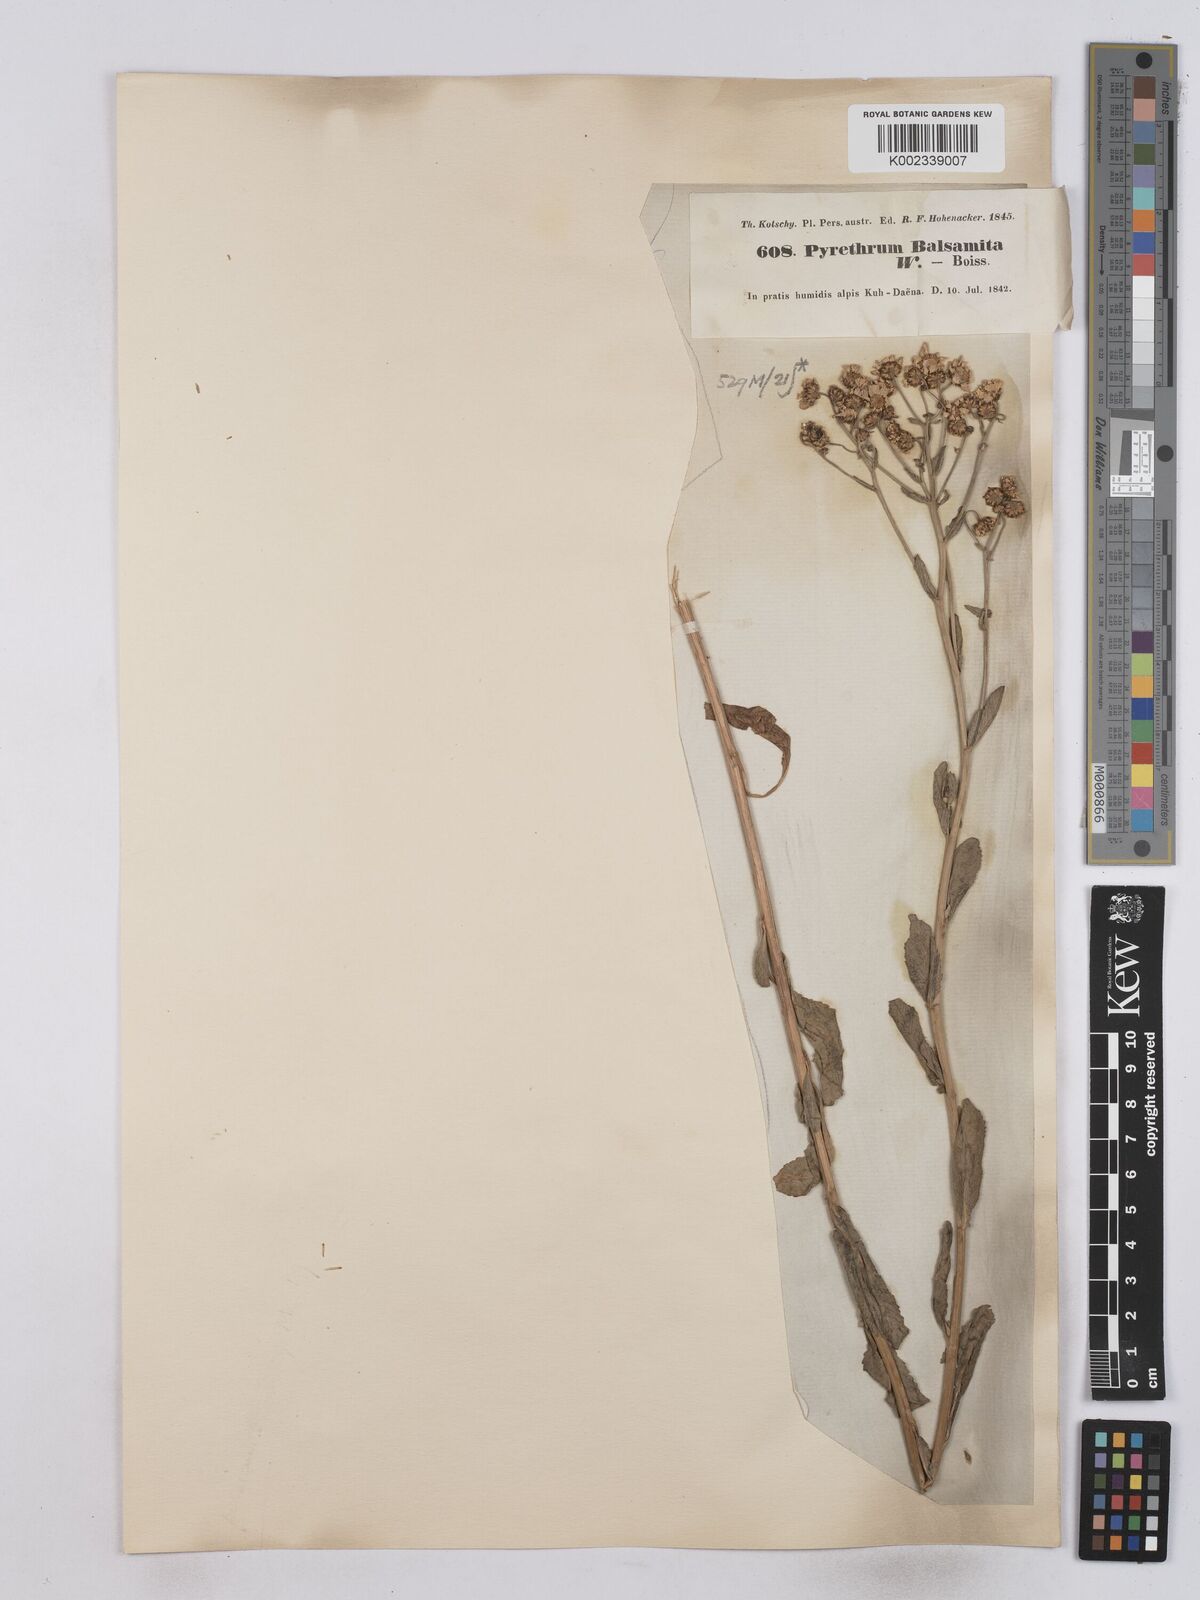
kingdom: Plantae
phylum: Tracheophyta
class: Magnoliopsida
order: Asterales
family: Asteraceae
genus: Tanacetum
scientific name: Tanacetum balsamita
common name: Costmary
